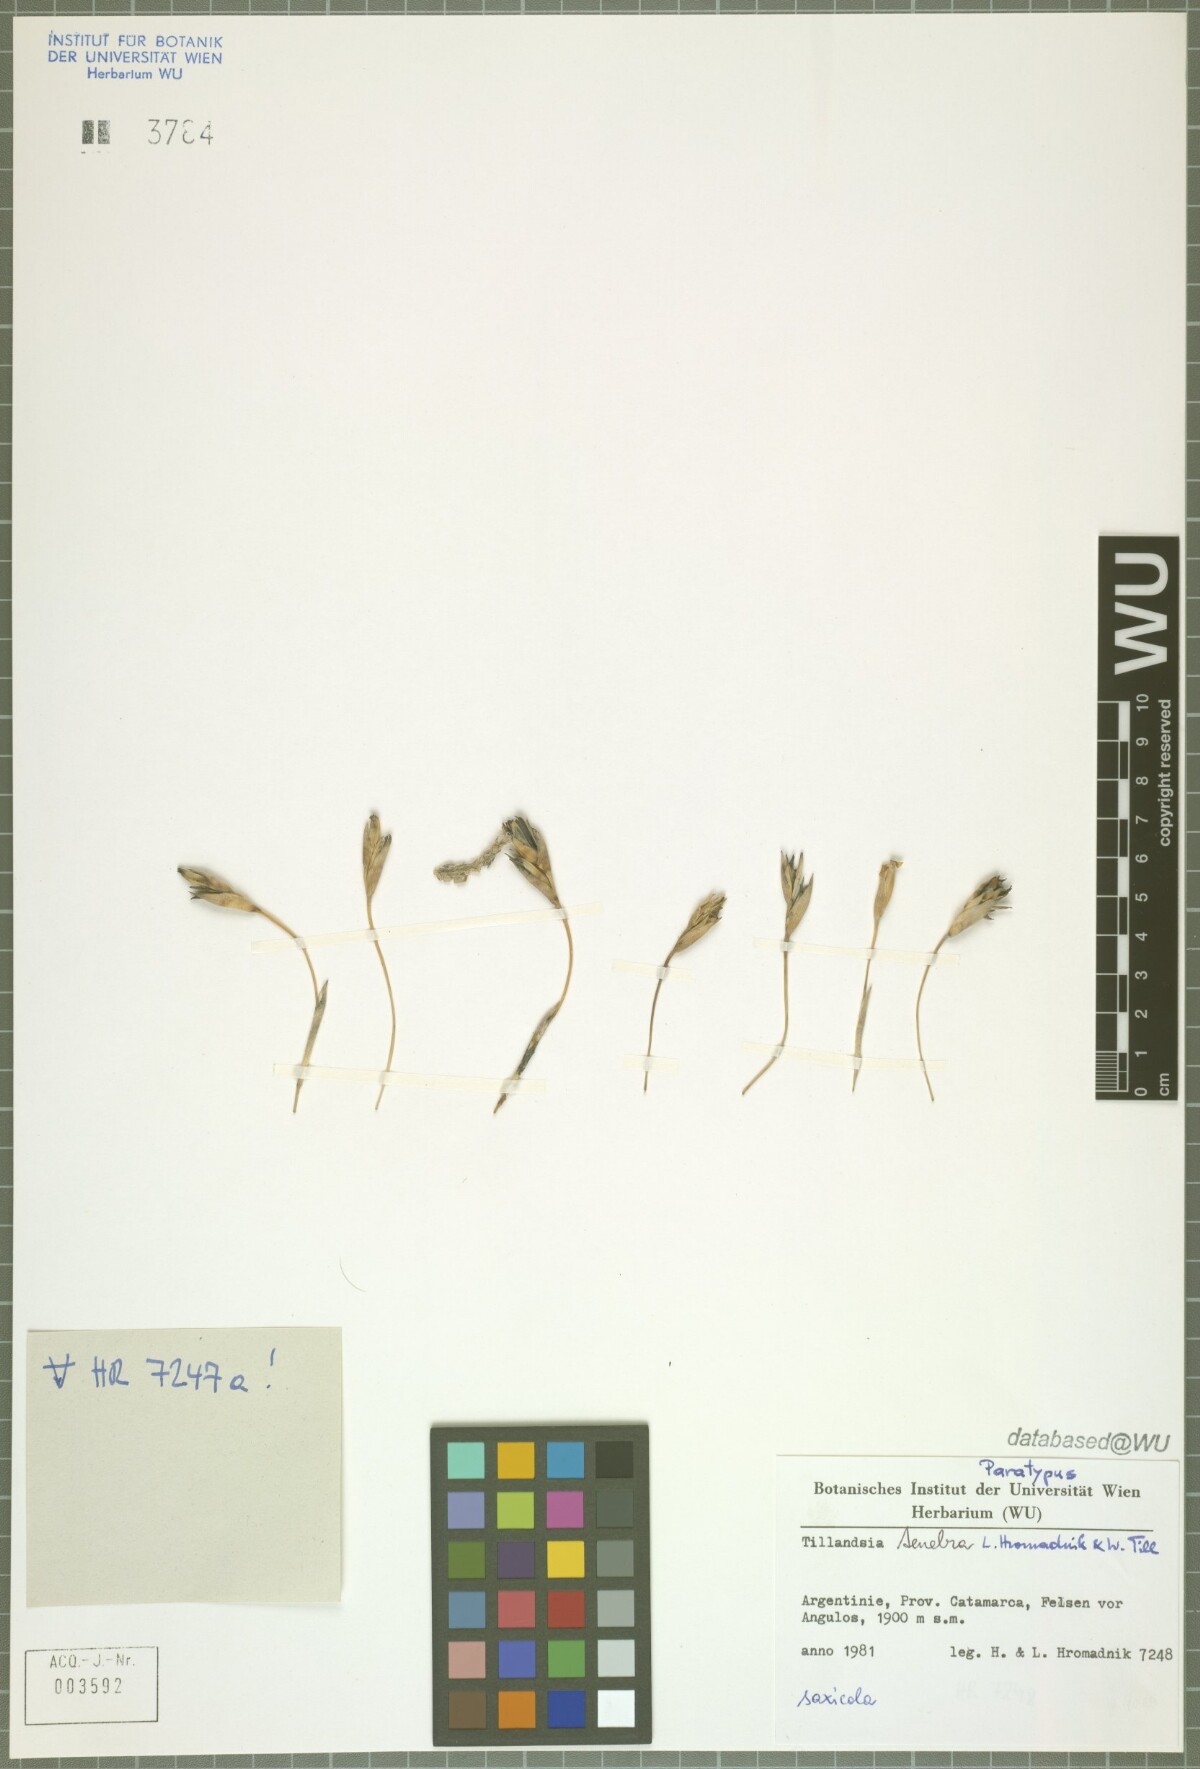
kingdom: Plantae
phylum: Tracheophyta
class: Liliopsida
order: Poales
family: Bromeliaceae
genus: Tillandsia
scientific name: Tillandsia tenebra
